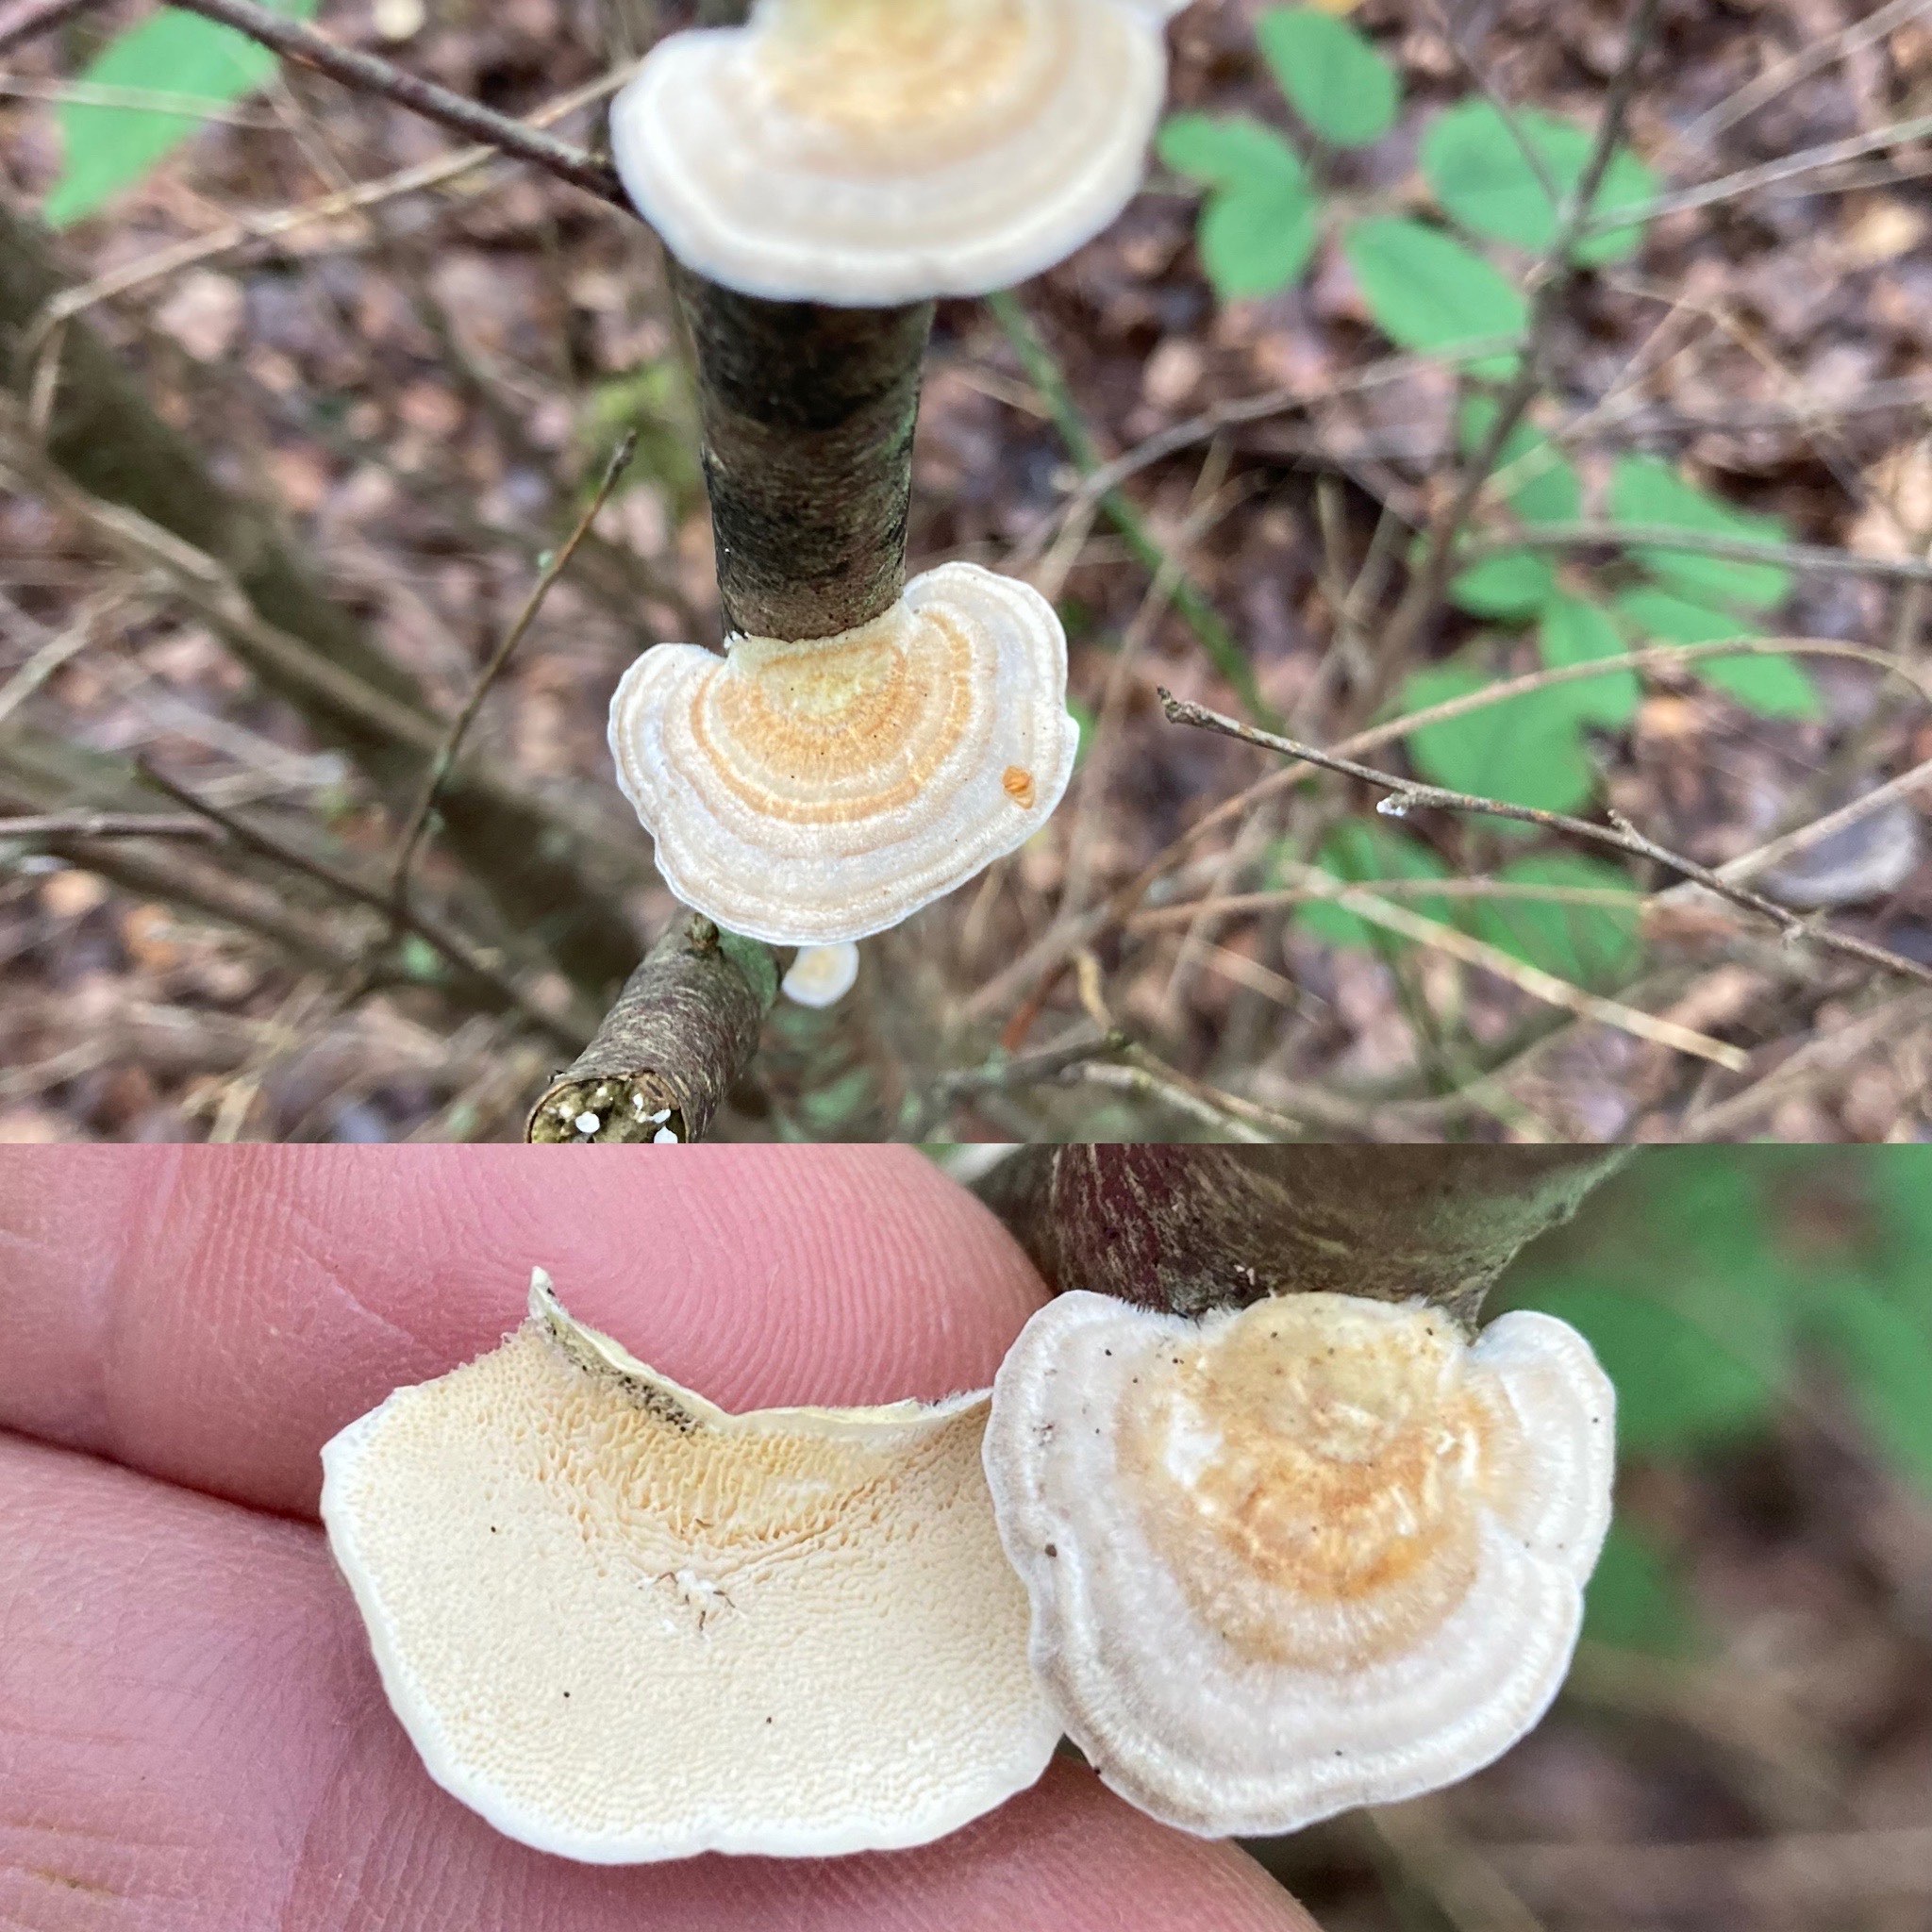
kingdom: Fungi
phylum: Basidiomycota
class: Agaricomycetes
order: Polyporales
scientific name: Polyporales
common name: poresvampordenen
